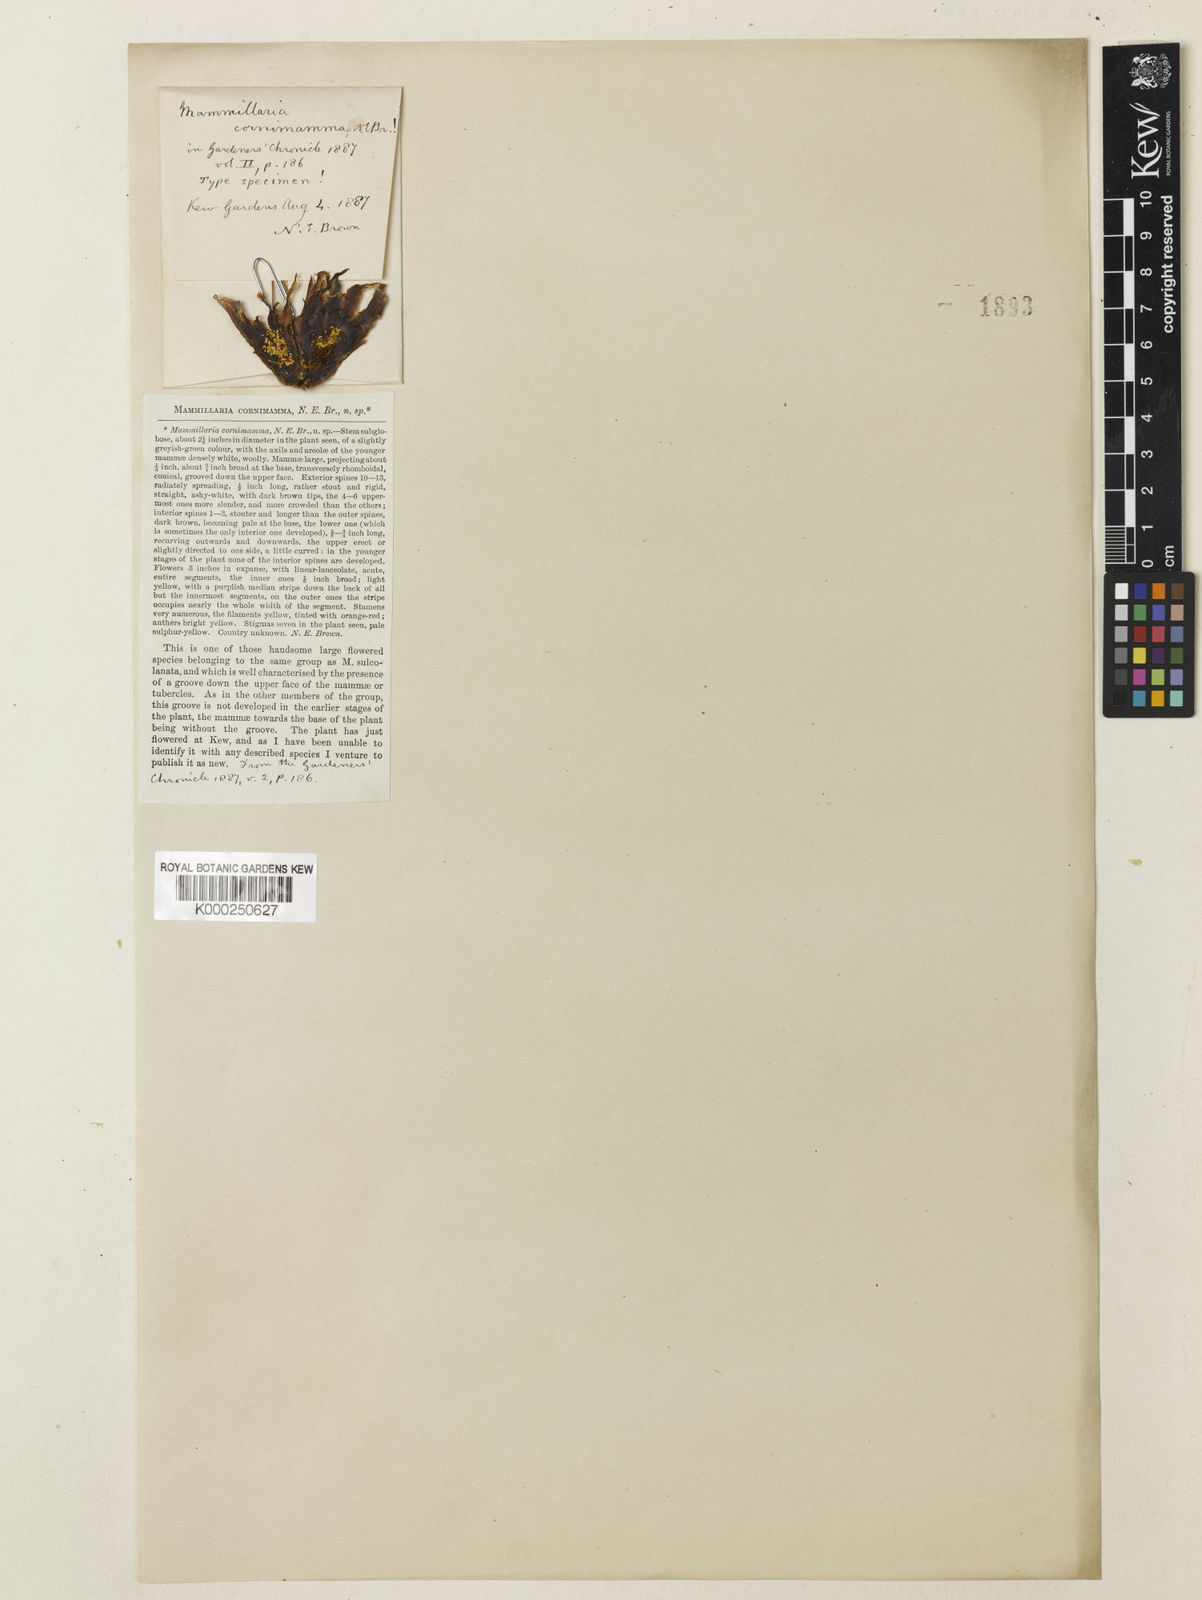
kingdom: Plantae
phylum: Tracheophyta
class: Magnoliopsida
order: Caryophyllales
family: Cactaceae
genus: Coryphantha
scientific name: Coryphantha elephantidens
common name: Elephant's tooth
